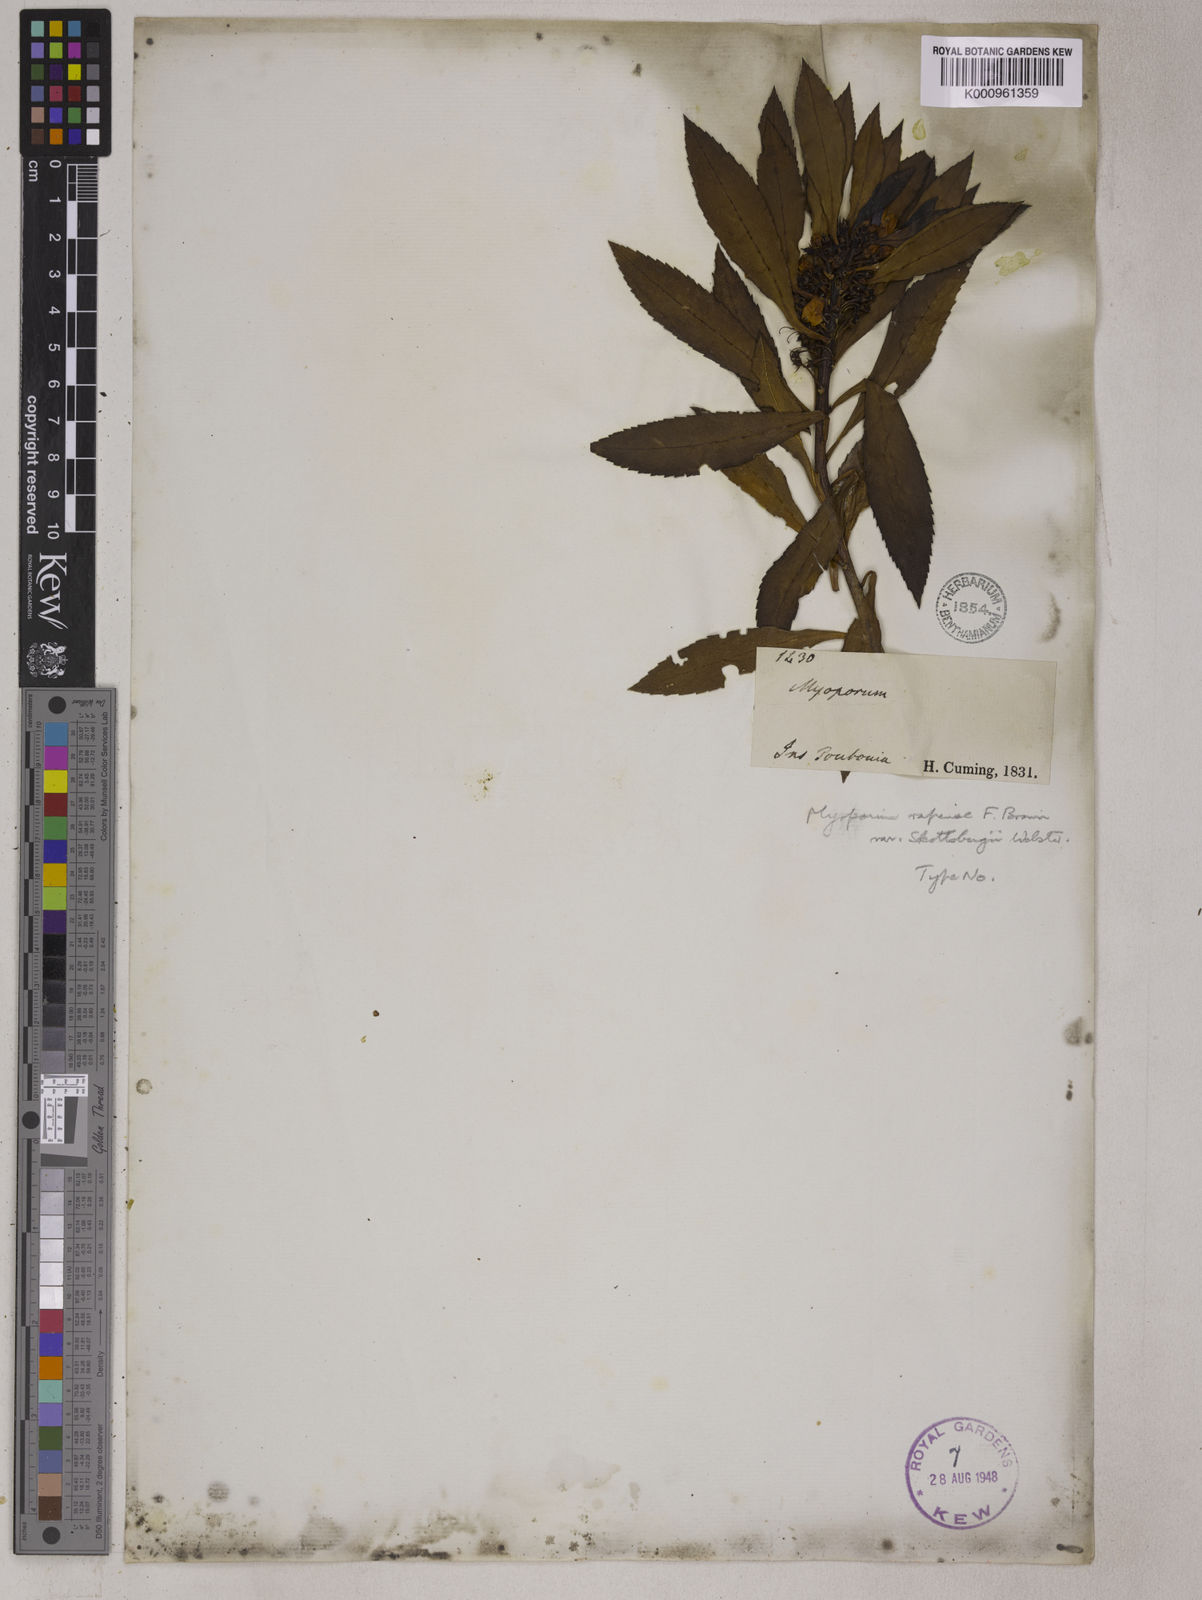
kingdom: Plantae
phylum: Tracheophyta
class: Magnoliopsida
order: Lamiales
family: Scrophulariaceae
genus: Myoporum
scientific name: Myoporum rapense
